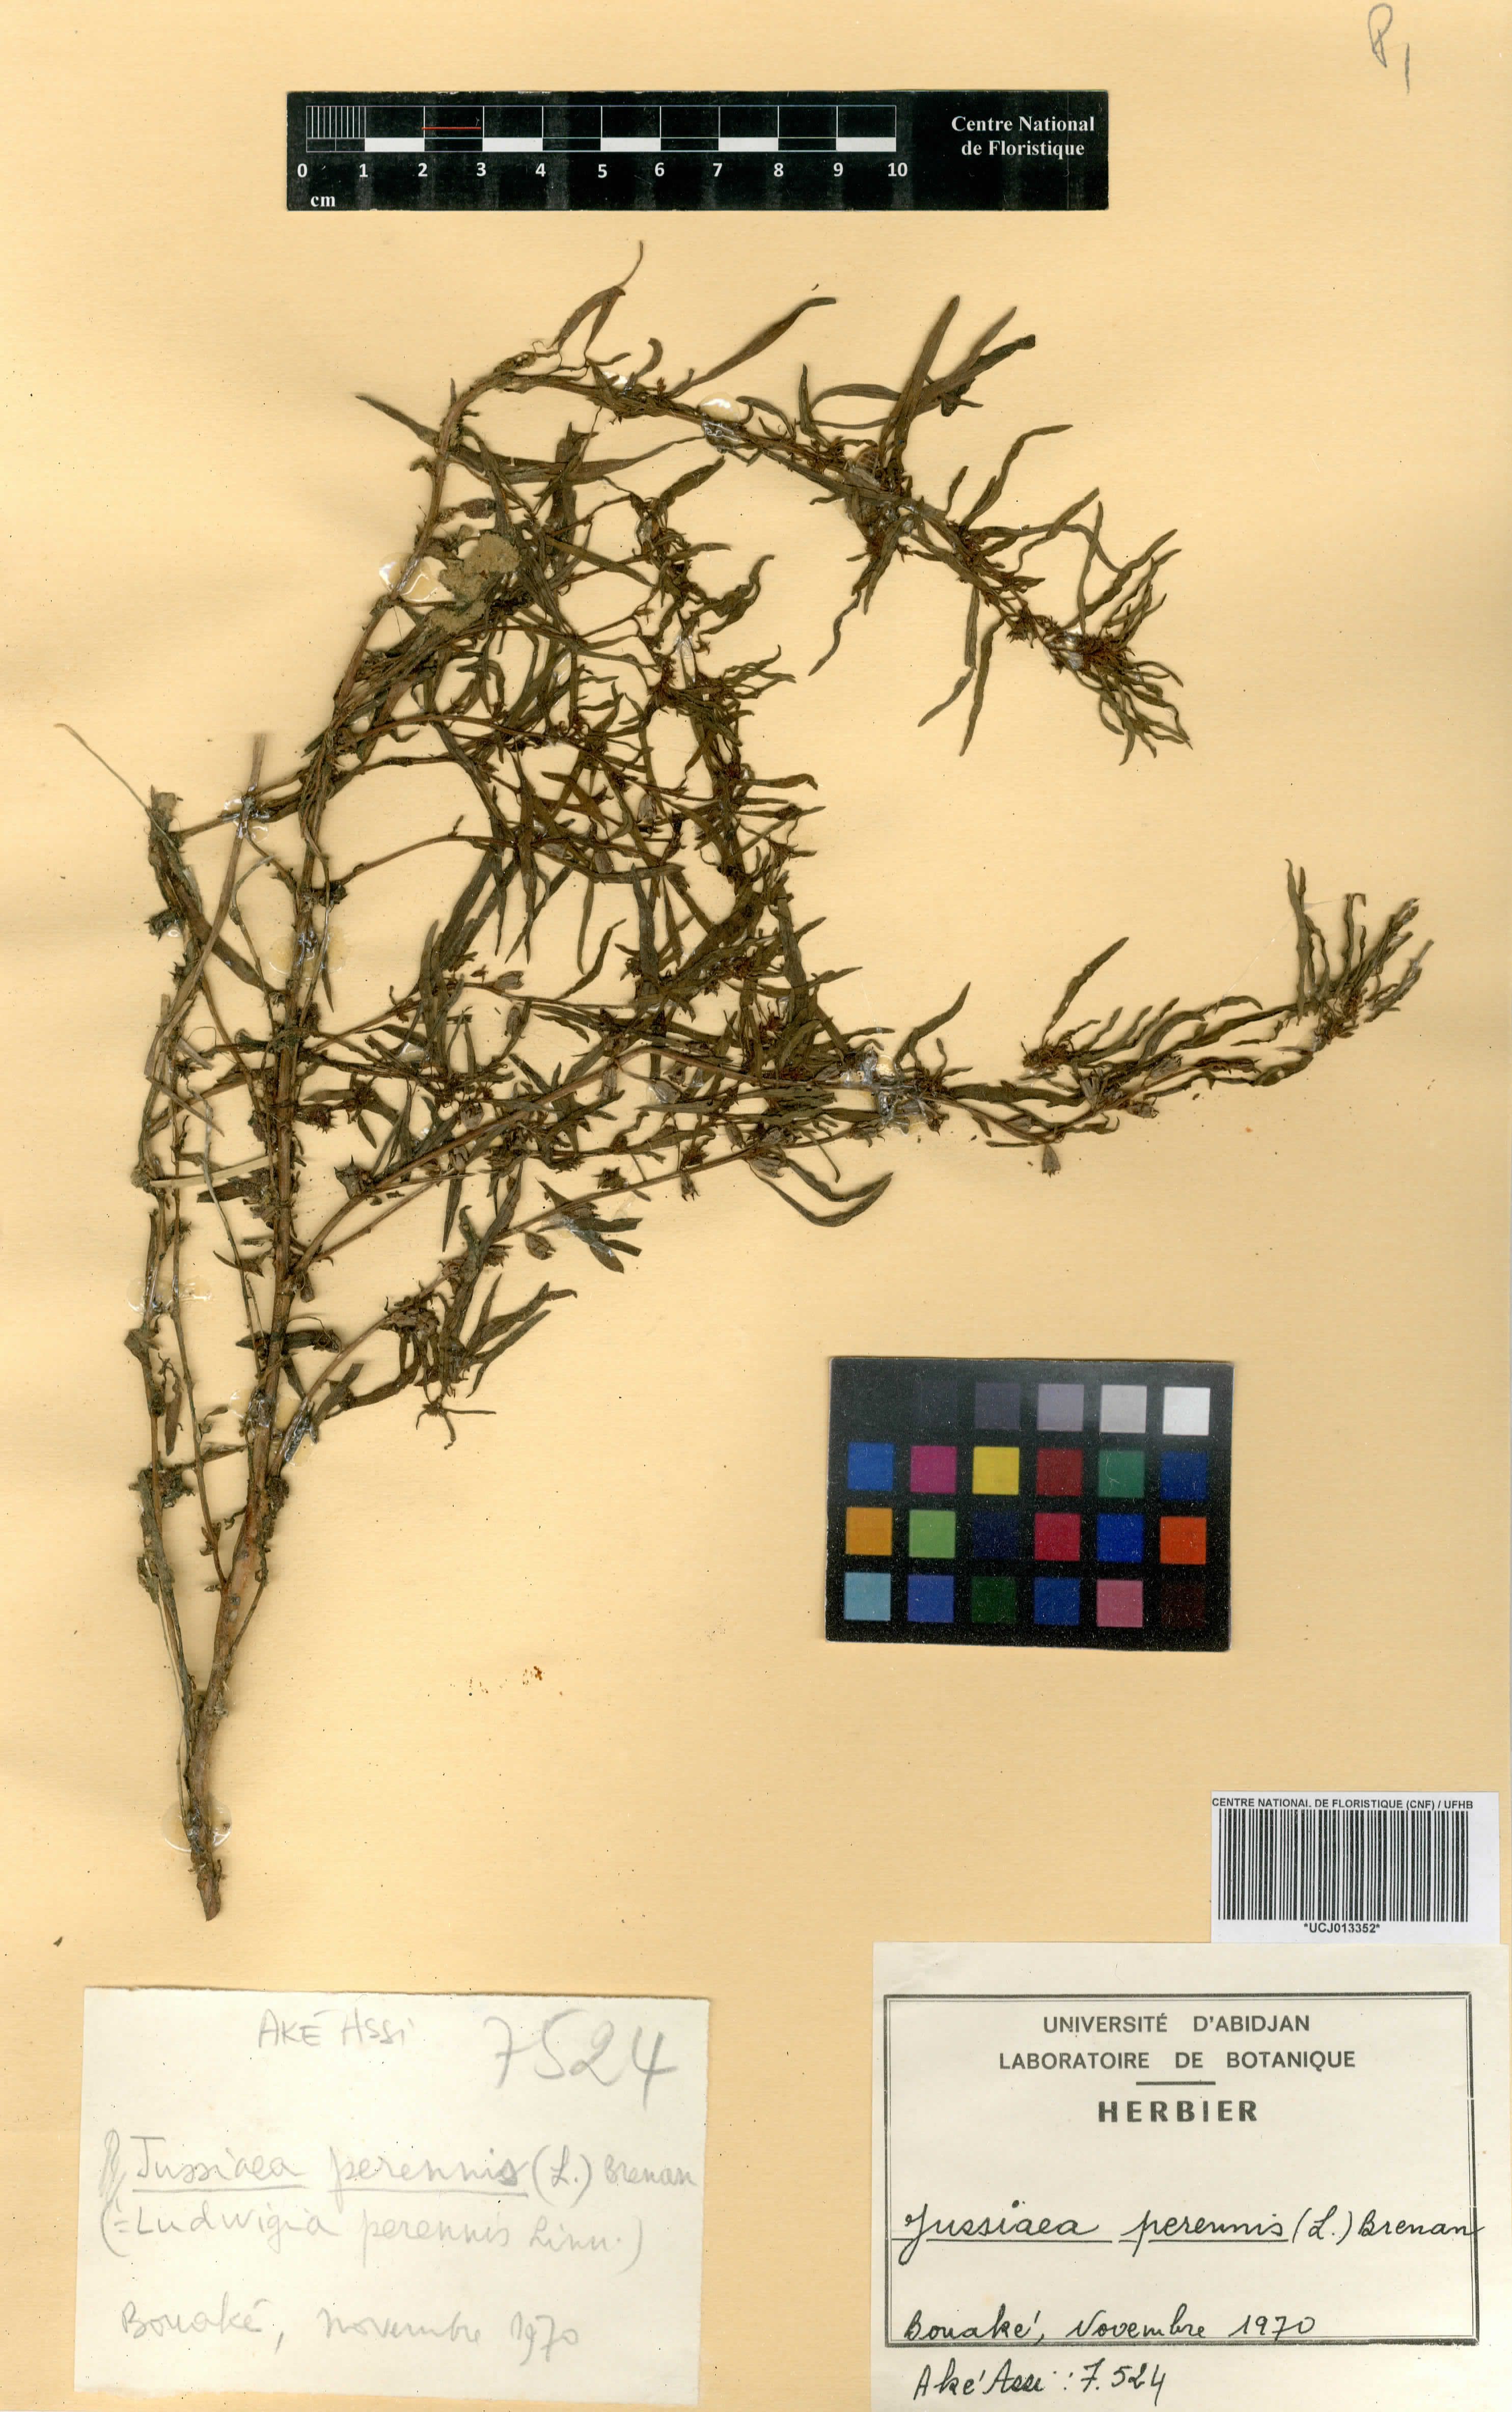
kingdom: Plantae
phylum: Tracheophyta
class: Magnoliopsida
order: Myrtales
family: Onagraceae
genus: Ludwigia
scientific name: Ludwigia adscendens
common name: Creeping water primrose
